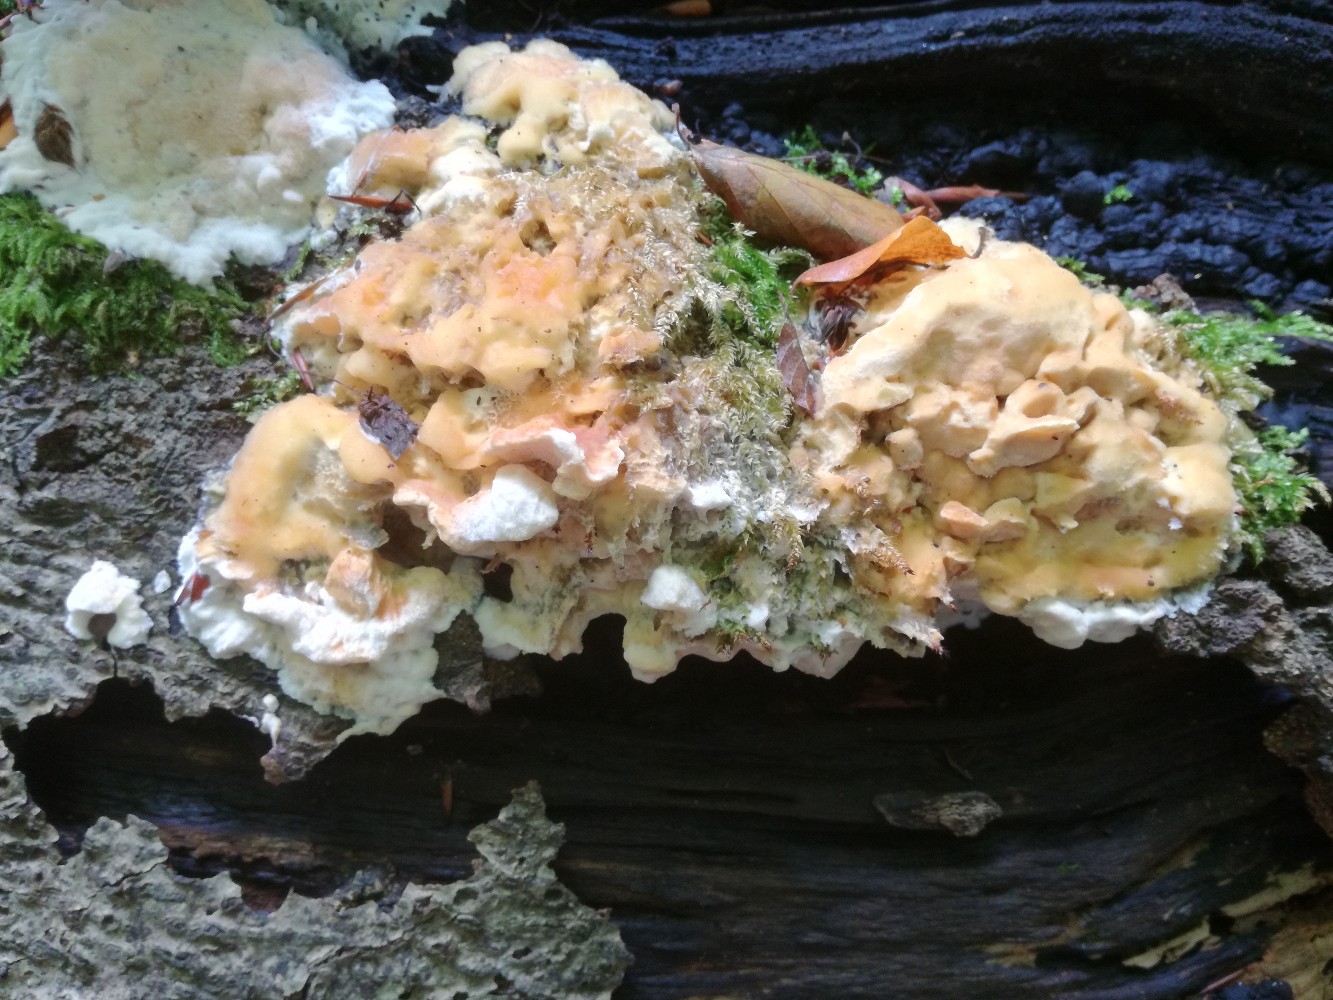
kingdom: Fungi
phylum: Basidiomycota
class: Agaricomycetes
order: Polyporales
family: Steccherinaceae
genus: Antrodiella
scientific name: Antrodiella mentschulensis
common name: abrikosporesvamp
